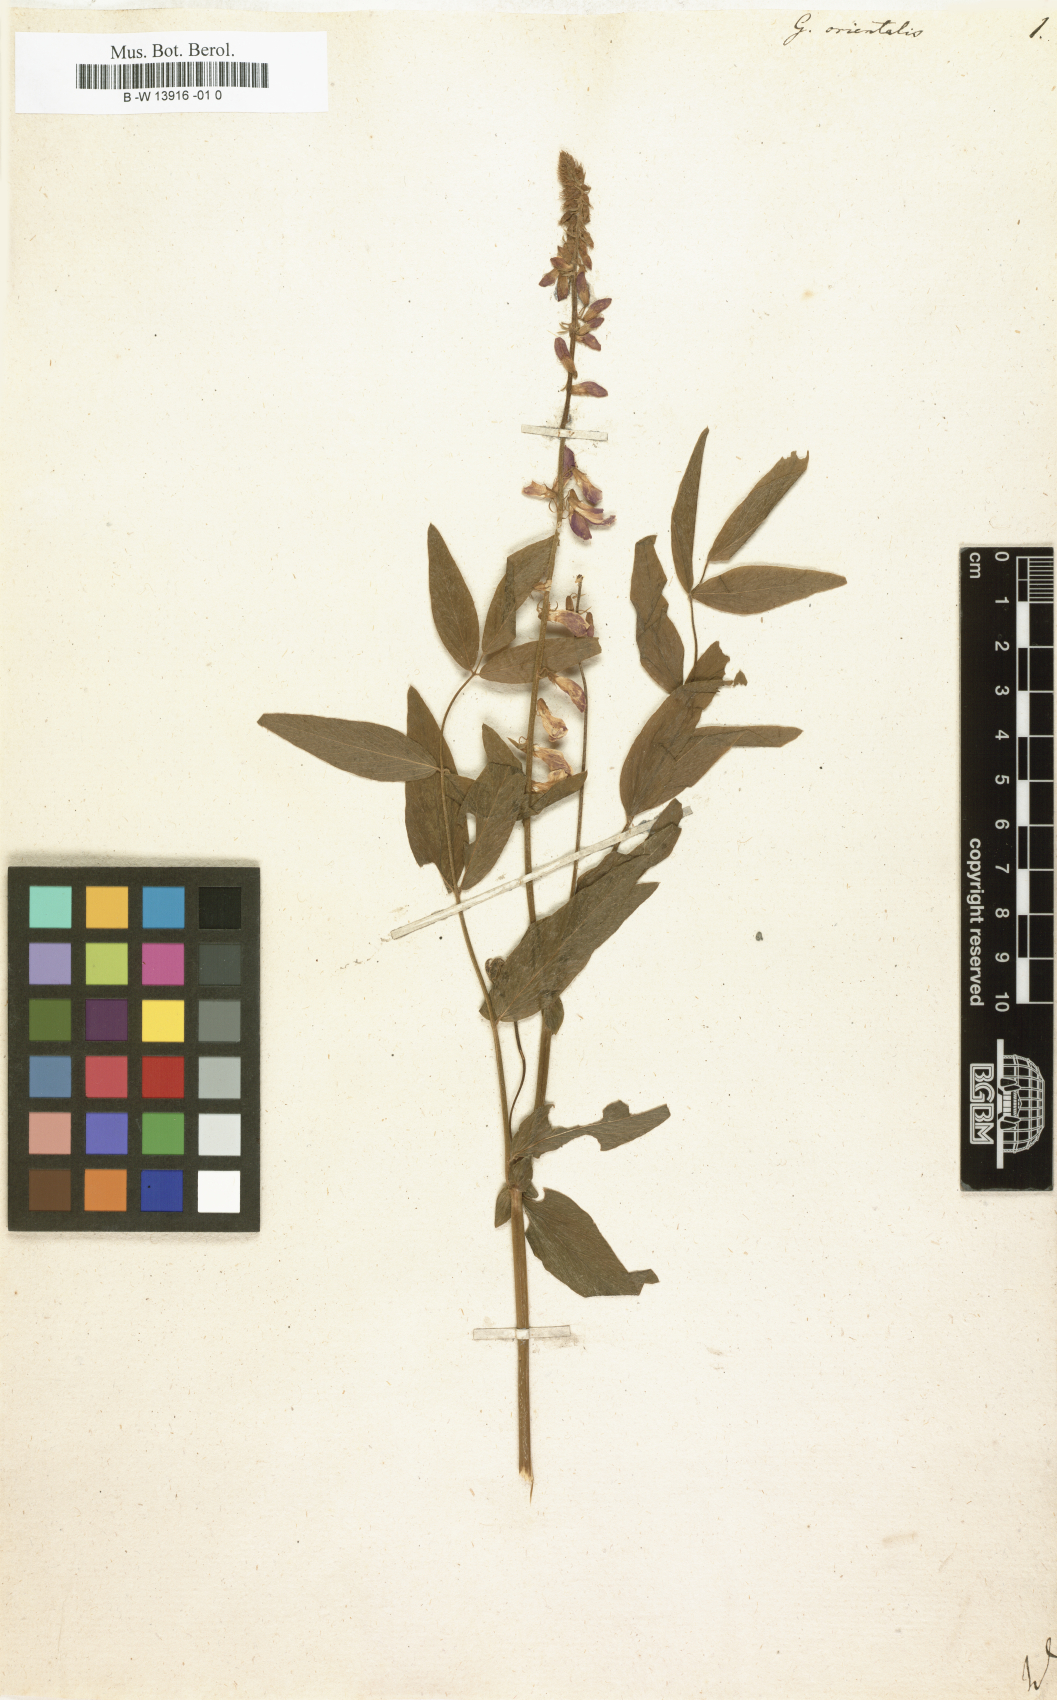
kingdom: Plantae
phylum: Tracheophyta
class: Magnoliopsida
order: Fabales
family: Fabaceae
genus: Galega
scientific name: Galega orientalis
